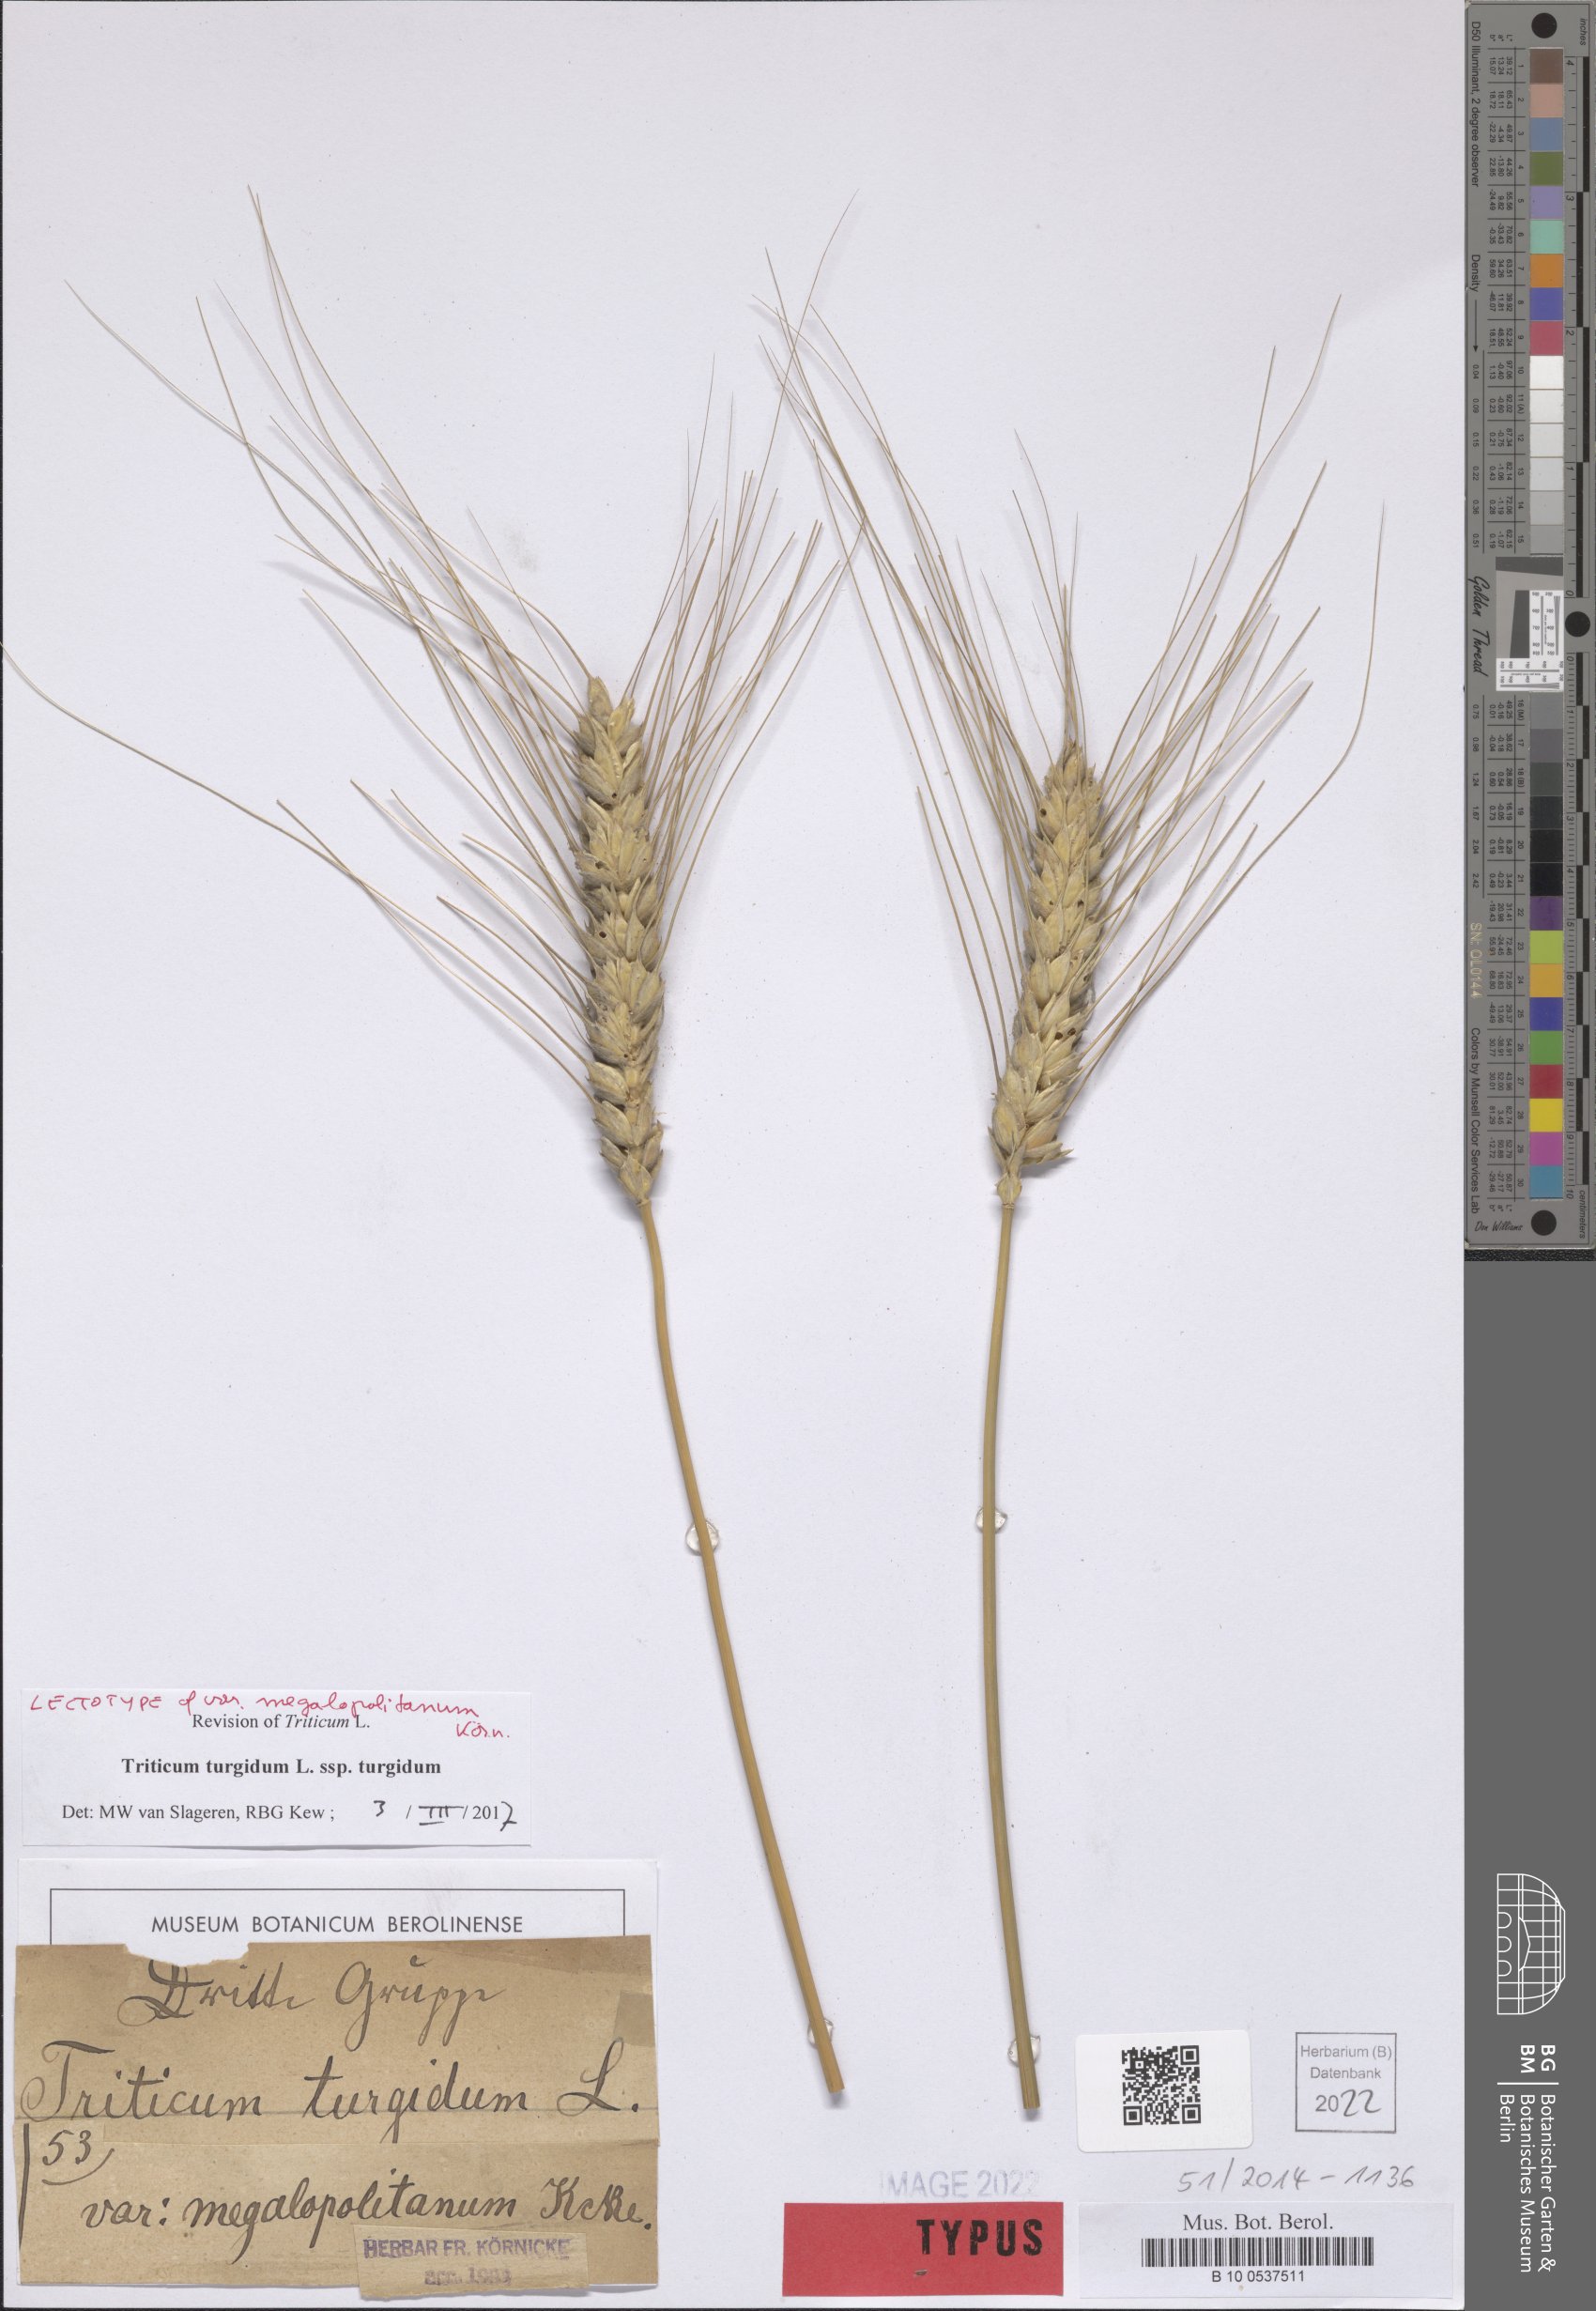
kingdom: Plantae
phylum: Tracheophyta
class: Liliopsida
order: Poales
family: Poaceae
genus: Triticum
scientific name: Triticum turgidum
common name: Rivet wheat
